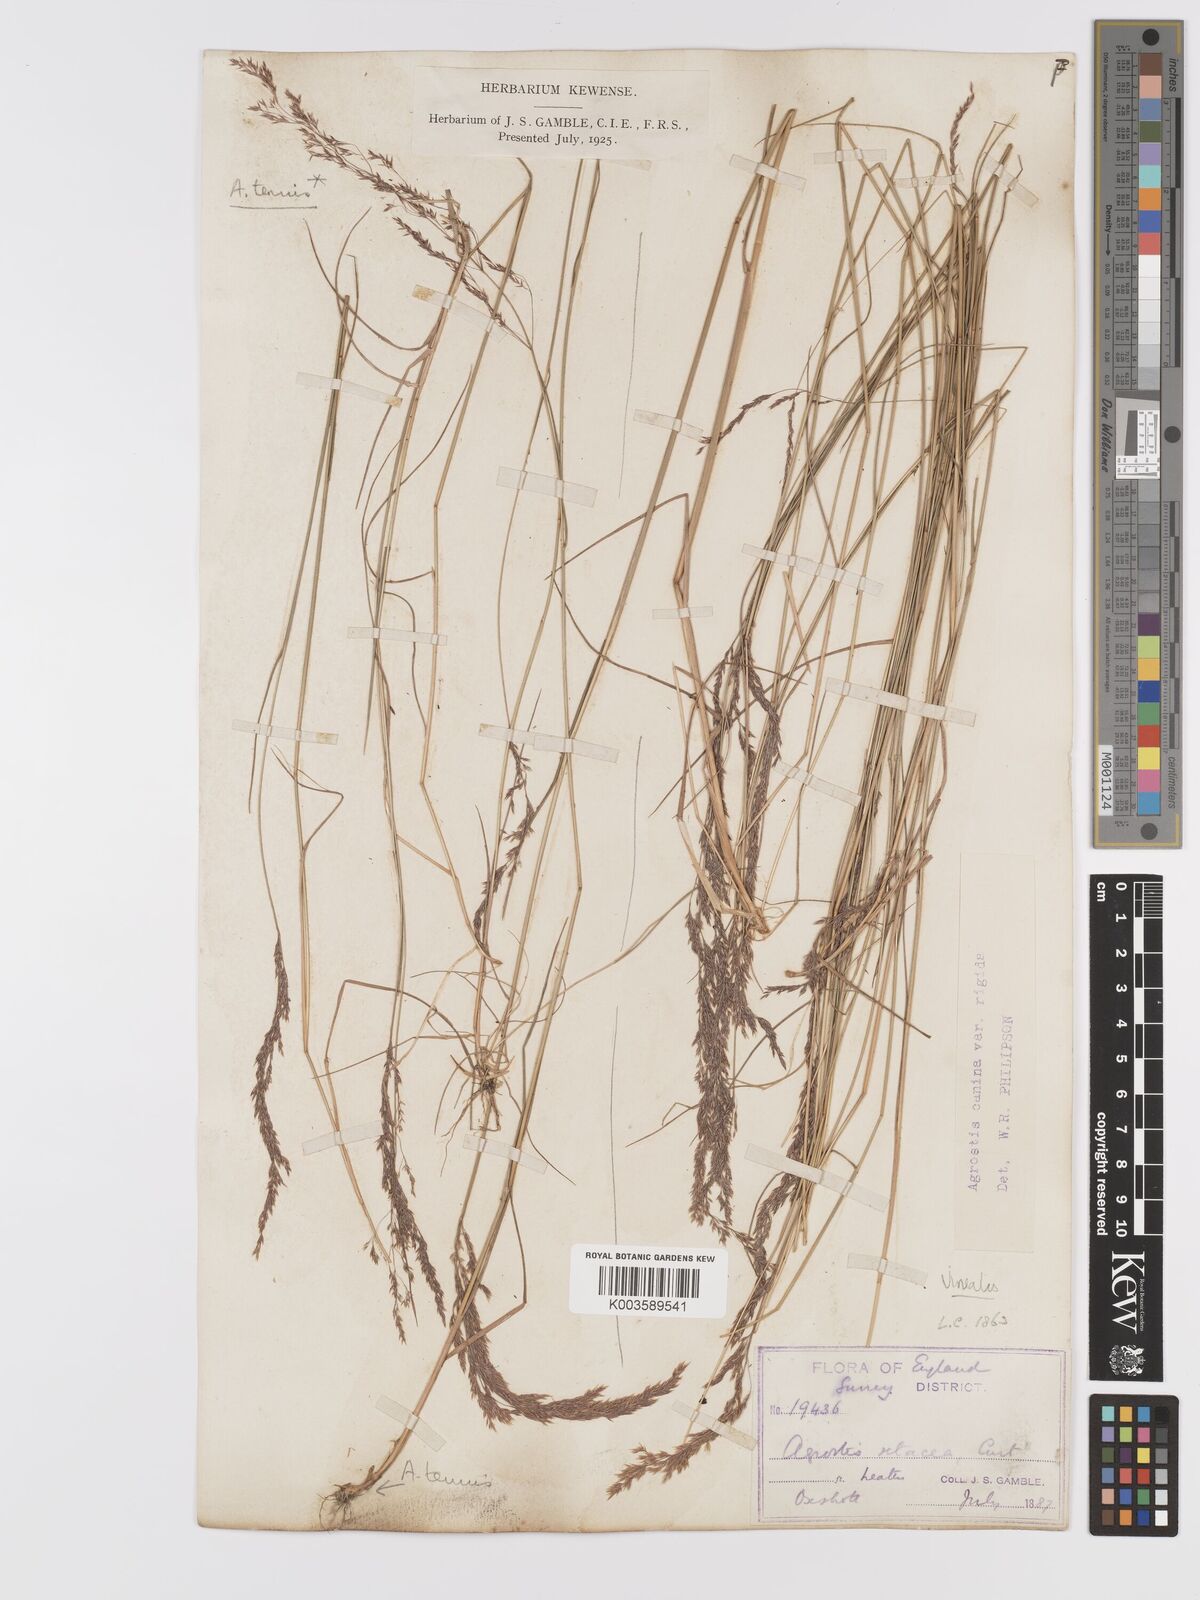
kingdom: Plantae
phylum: Tracheophyta
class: Liliopsida
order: Poales
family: Poaceae
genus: Agrostis
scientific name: Agrostis
